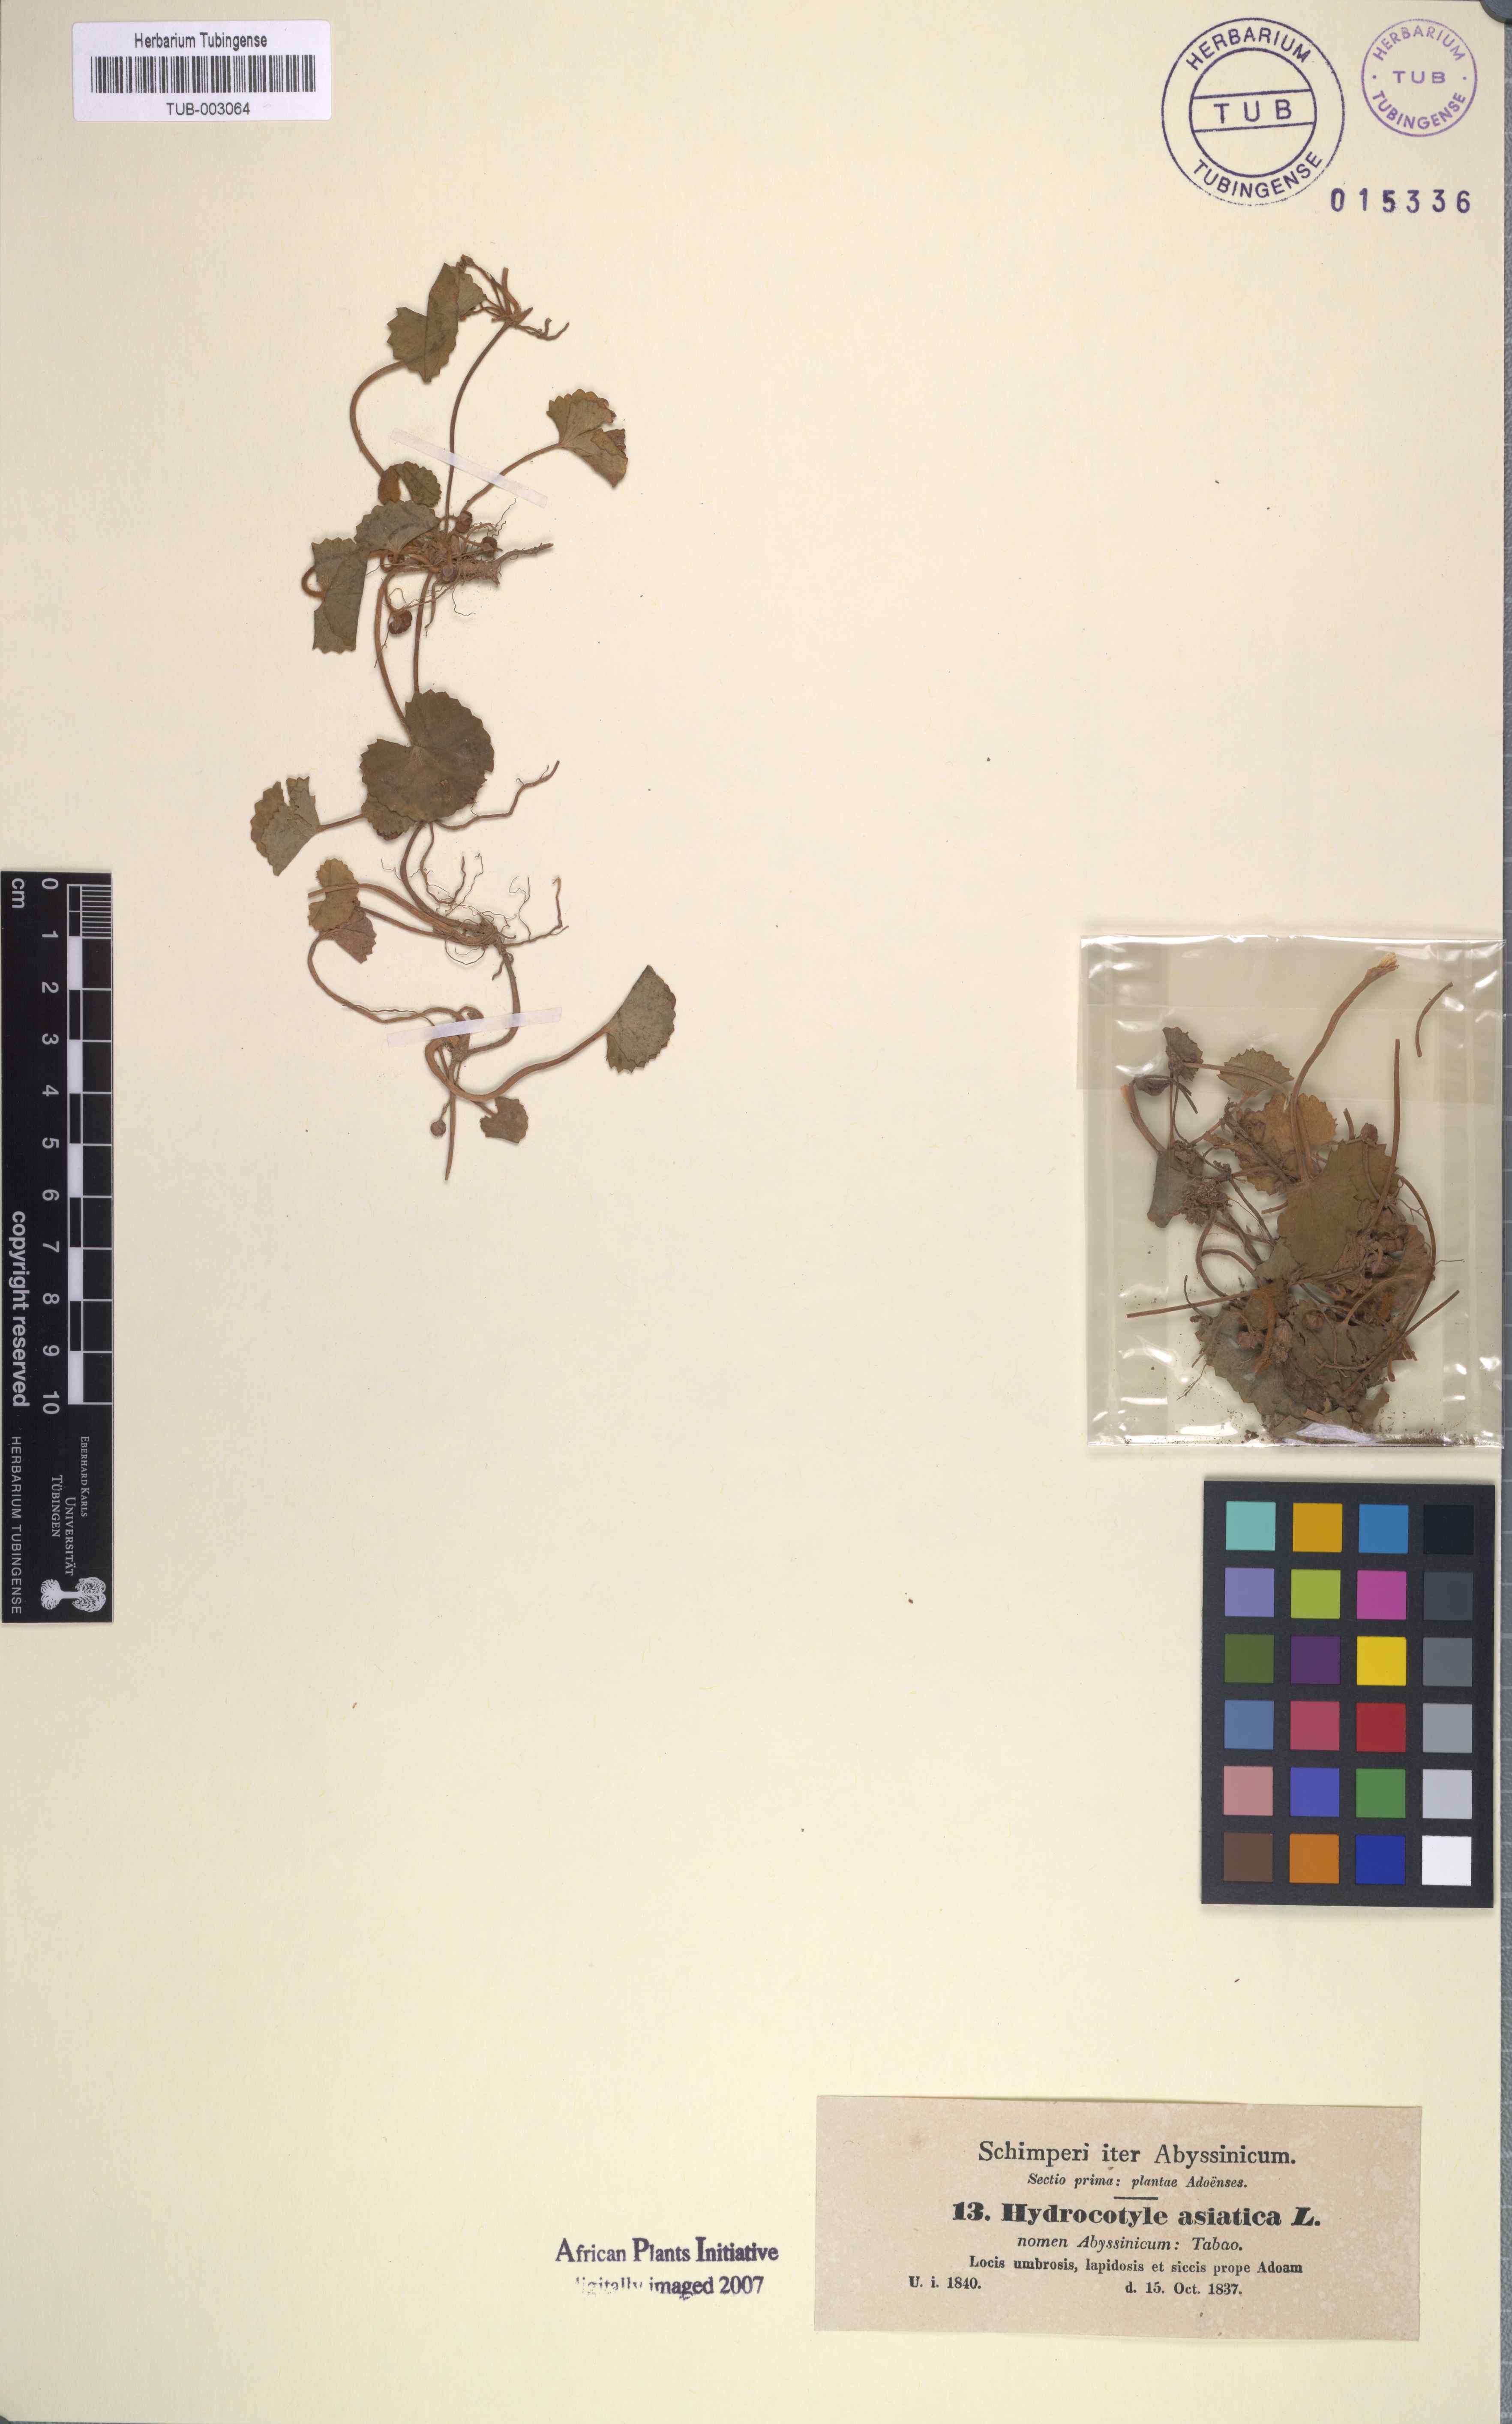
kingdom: Plantae
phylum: Tracheophyta
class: Magnoliopsida
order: Apiales
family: Apiaceae
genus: Centella
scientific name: Centella asiatica
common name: Spadeleaf
